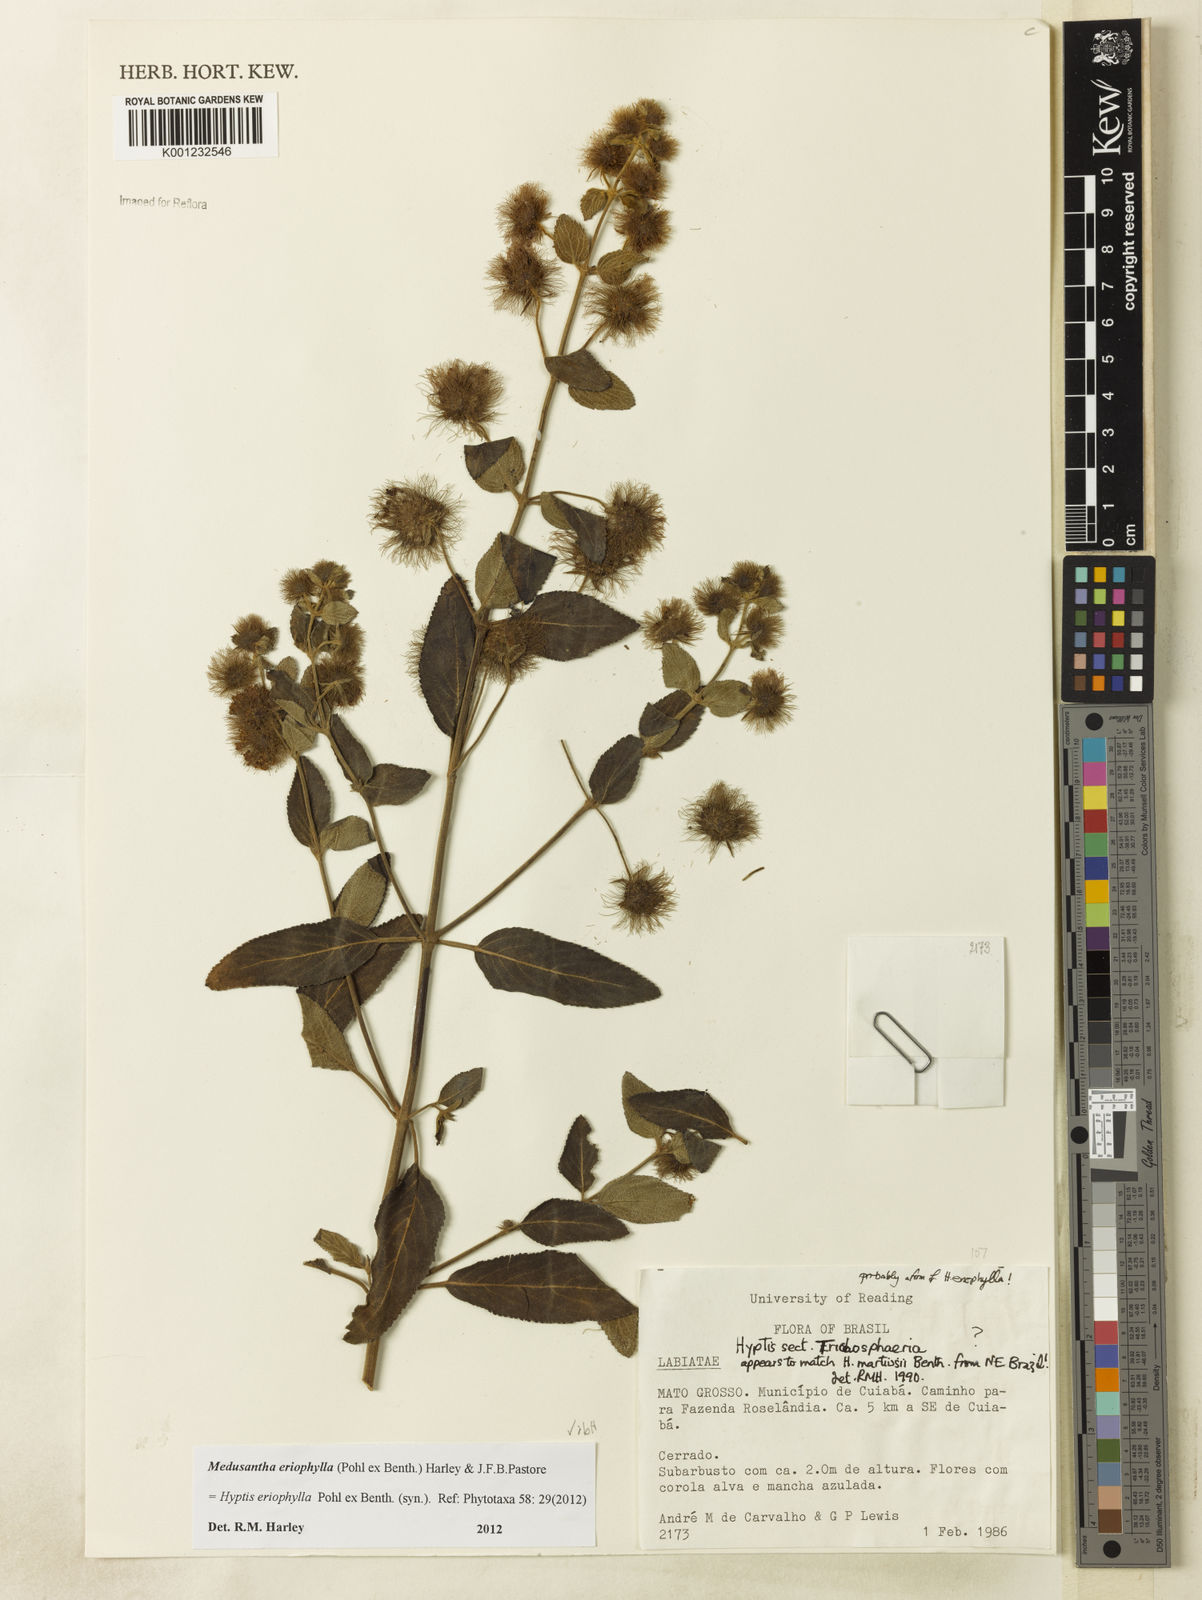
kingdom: Plantae
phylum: Tracheophyta
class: Magnoliopsida
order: Lamiales
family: Lamiaceae
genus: Medusantha
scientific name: Medusantha eriophylla
